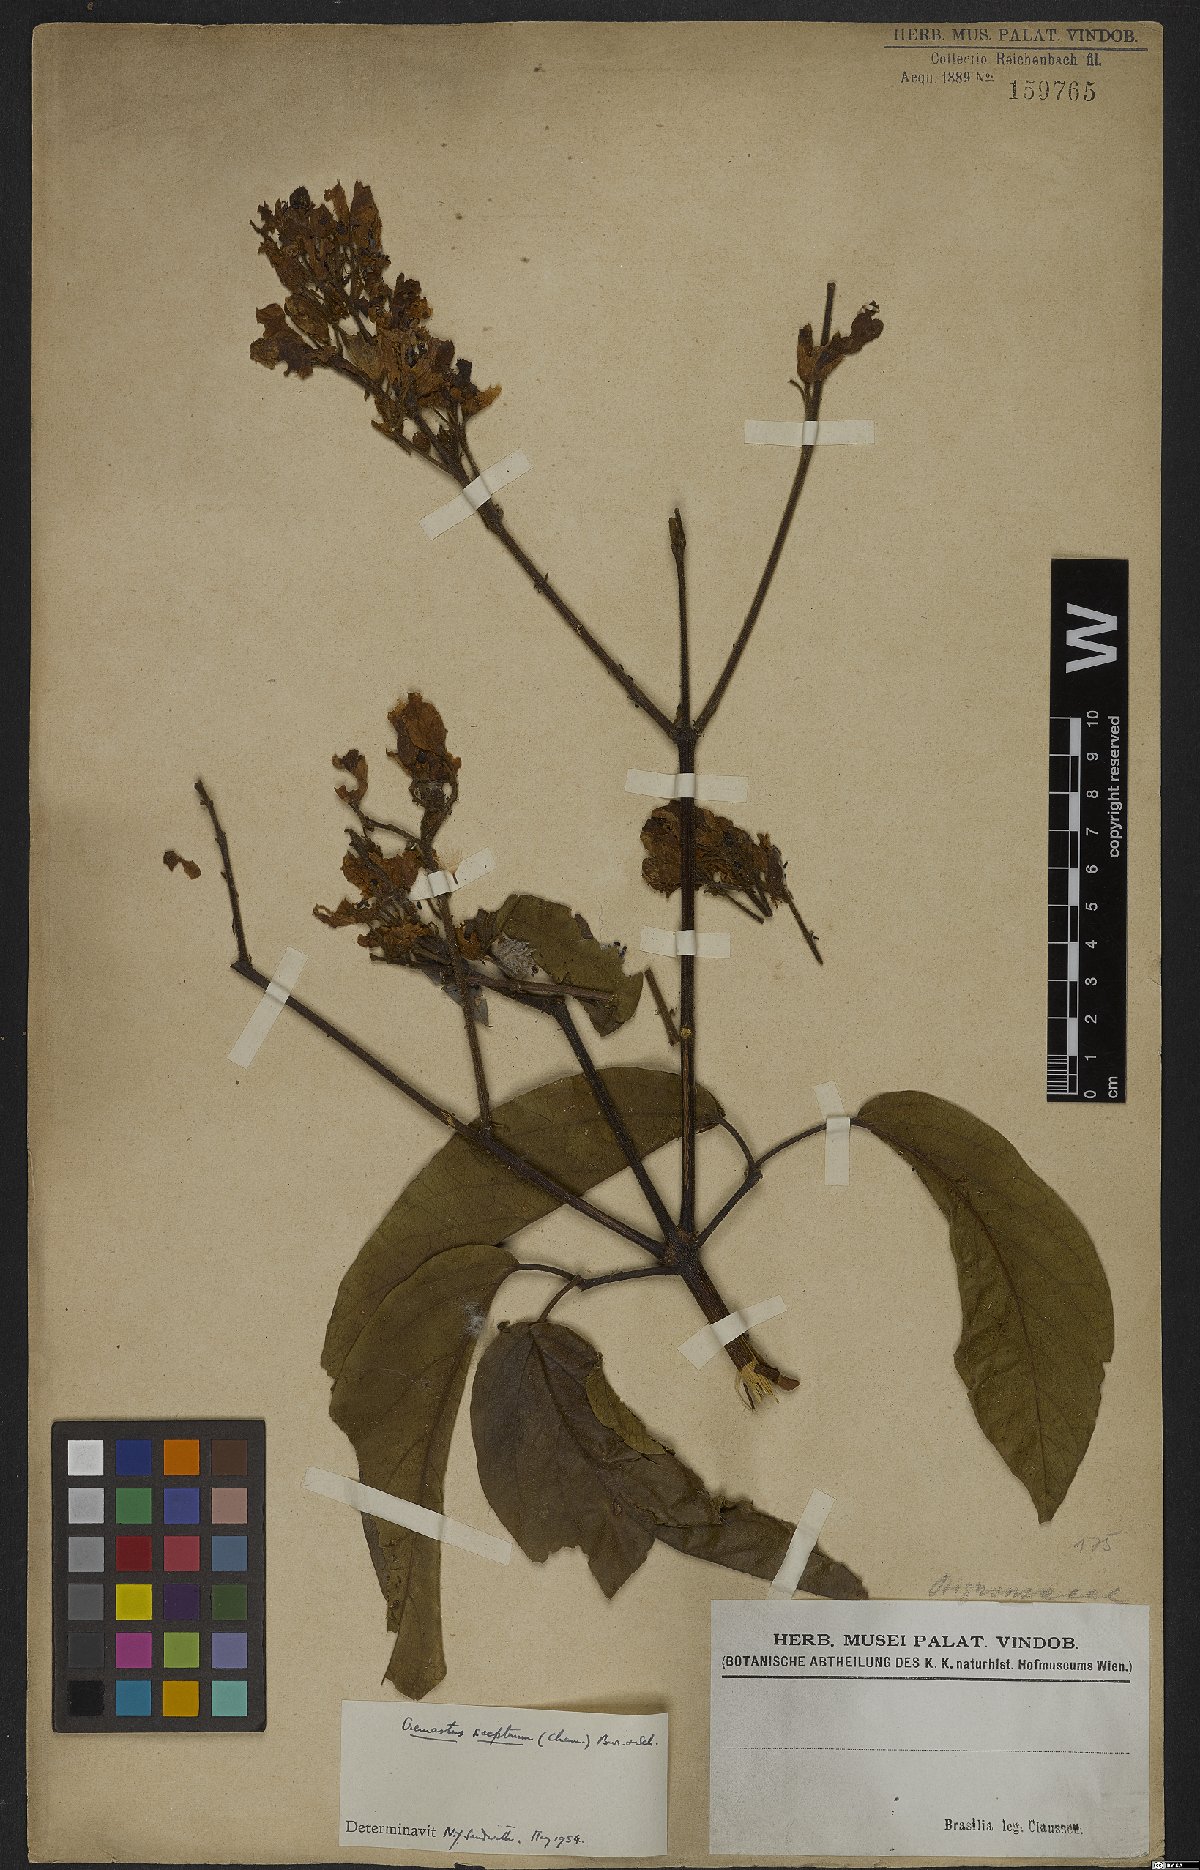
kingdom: Plantae
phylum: Tracheophyta
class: Magnoliopsida
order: Lamiales
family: Bignoniaceae
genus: Cuspidaria
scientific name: Cuspidaria sceptrum
